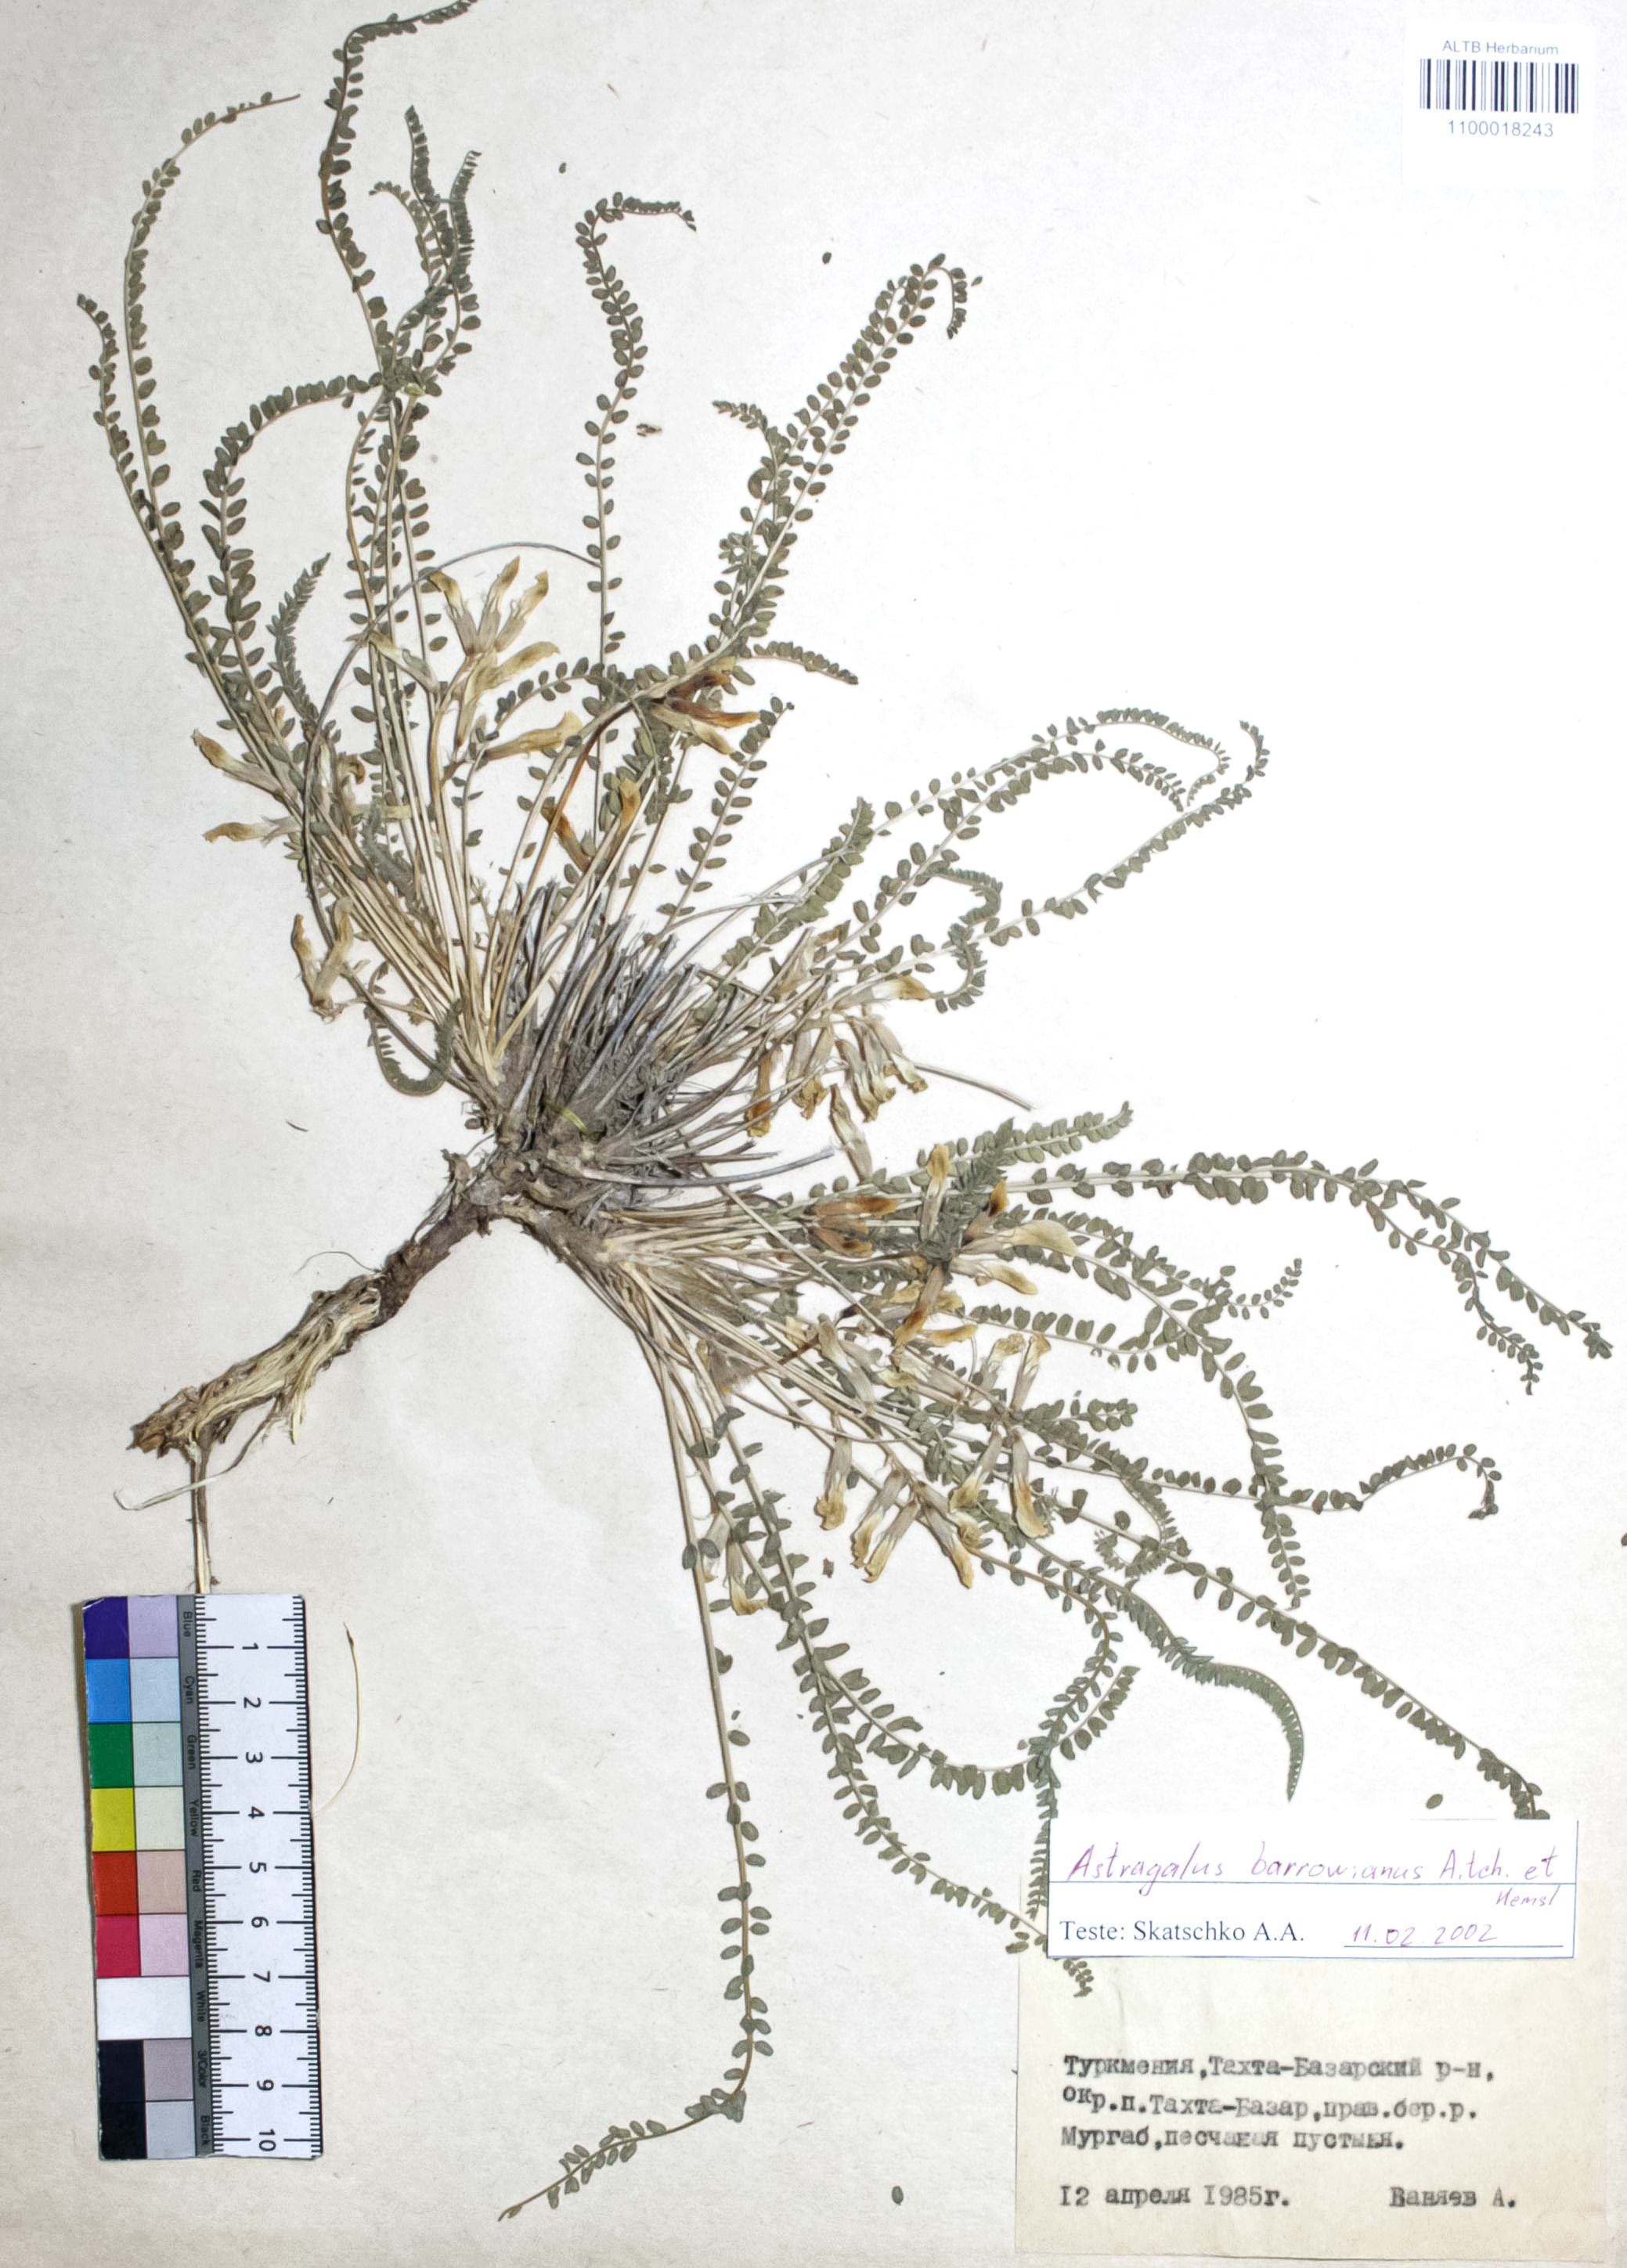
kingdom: Plantae
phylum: Tracheophyta
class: Magnoliopsida
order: Fabales
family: Fabaceae
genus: Astragalus
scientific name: Astragalus citrinus
